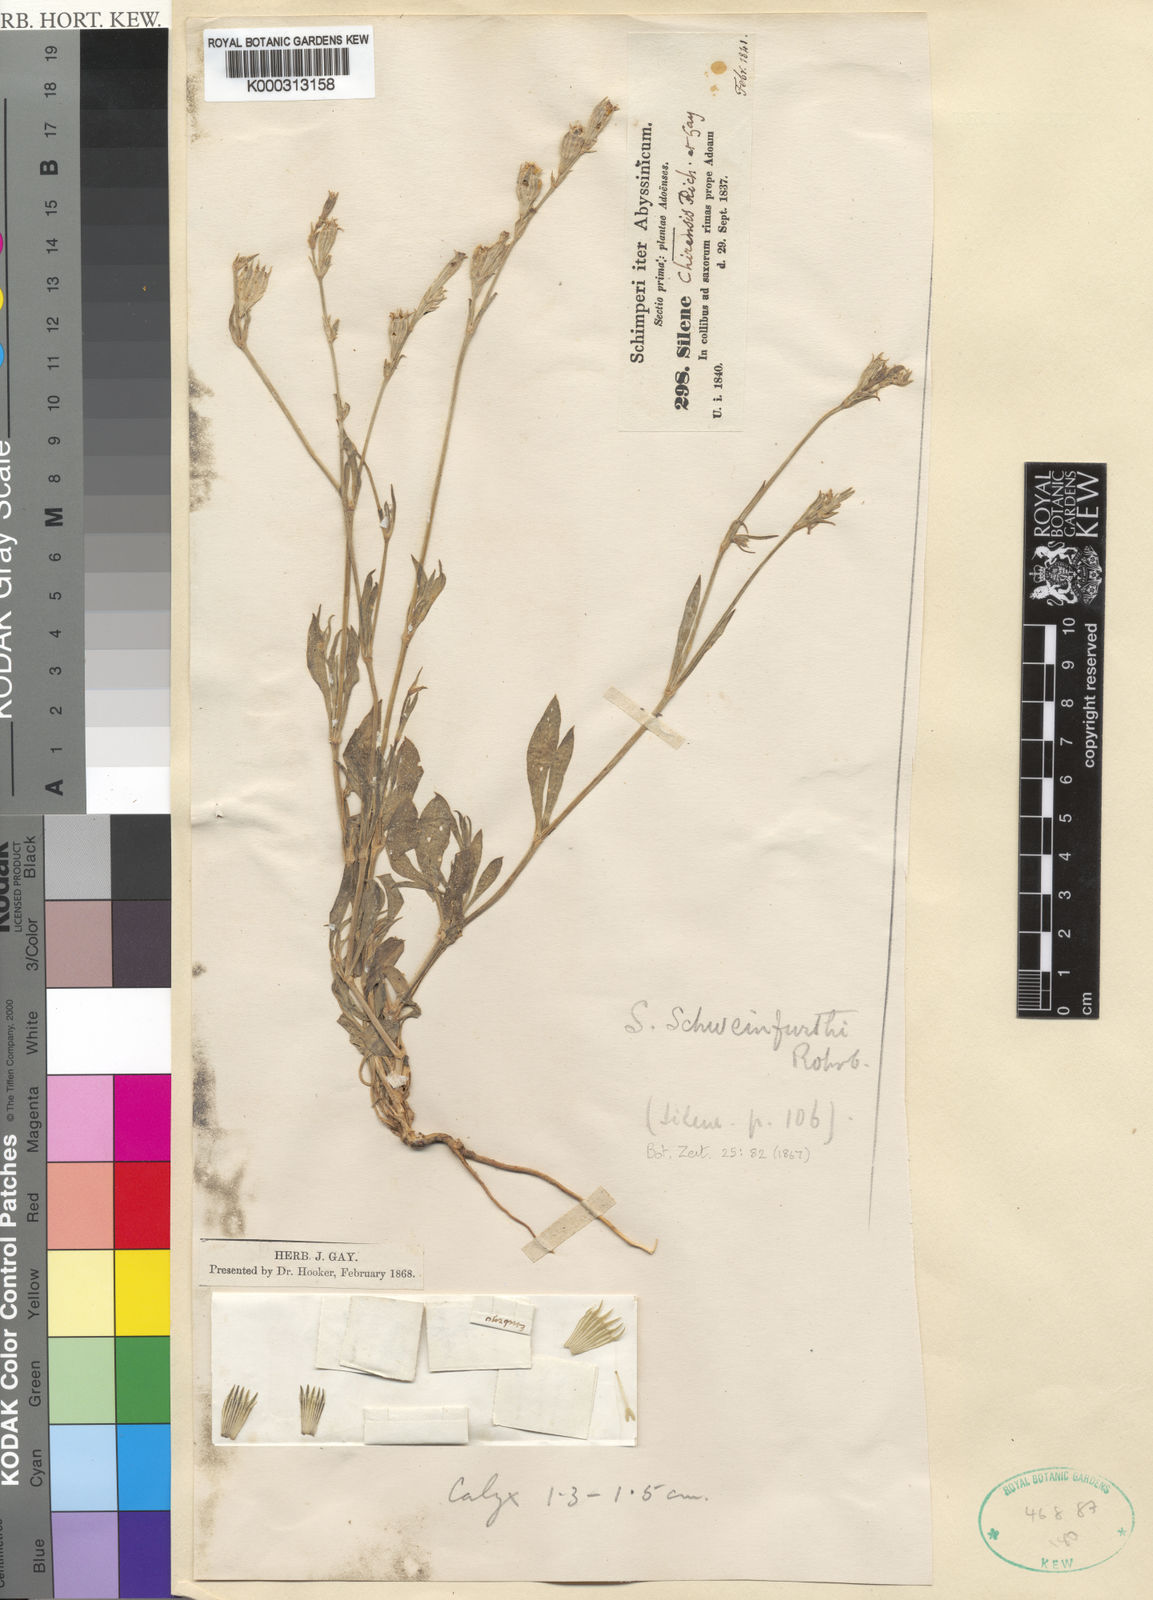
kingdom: Plantae
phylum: Tracheophyta
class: Magnoliopsida
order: Caryophyllales
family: Caryophyllaceae
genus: Silene
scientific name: Silene chirensis
